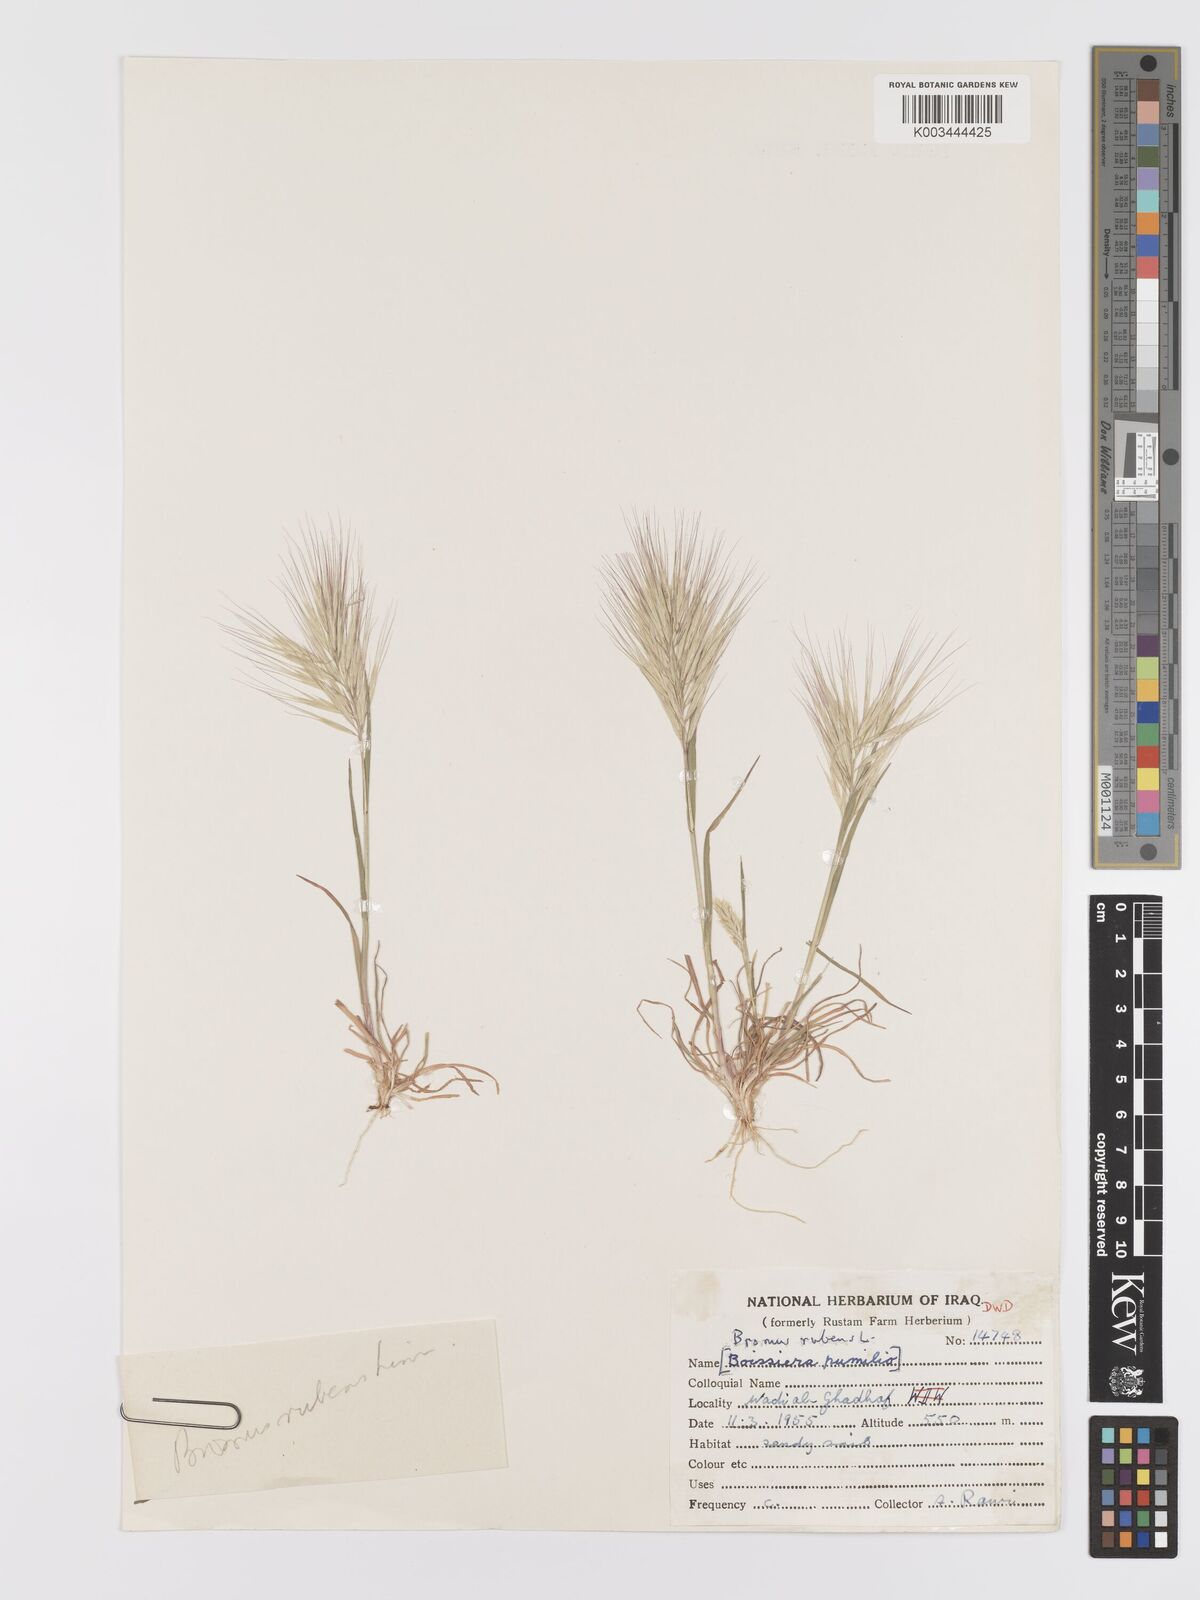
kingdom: Plantae
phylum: Tracheophyta
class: Liliopsida
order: Poales
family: Poaceae
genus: Bromus
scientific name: Bromus rubens
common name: Red brome
